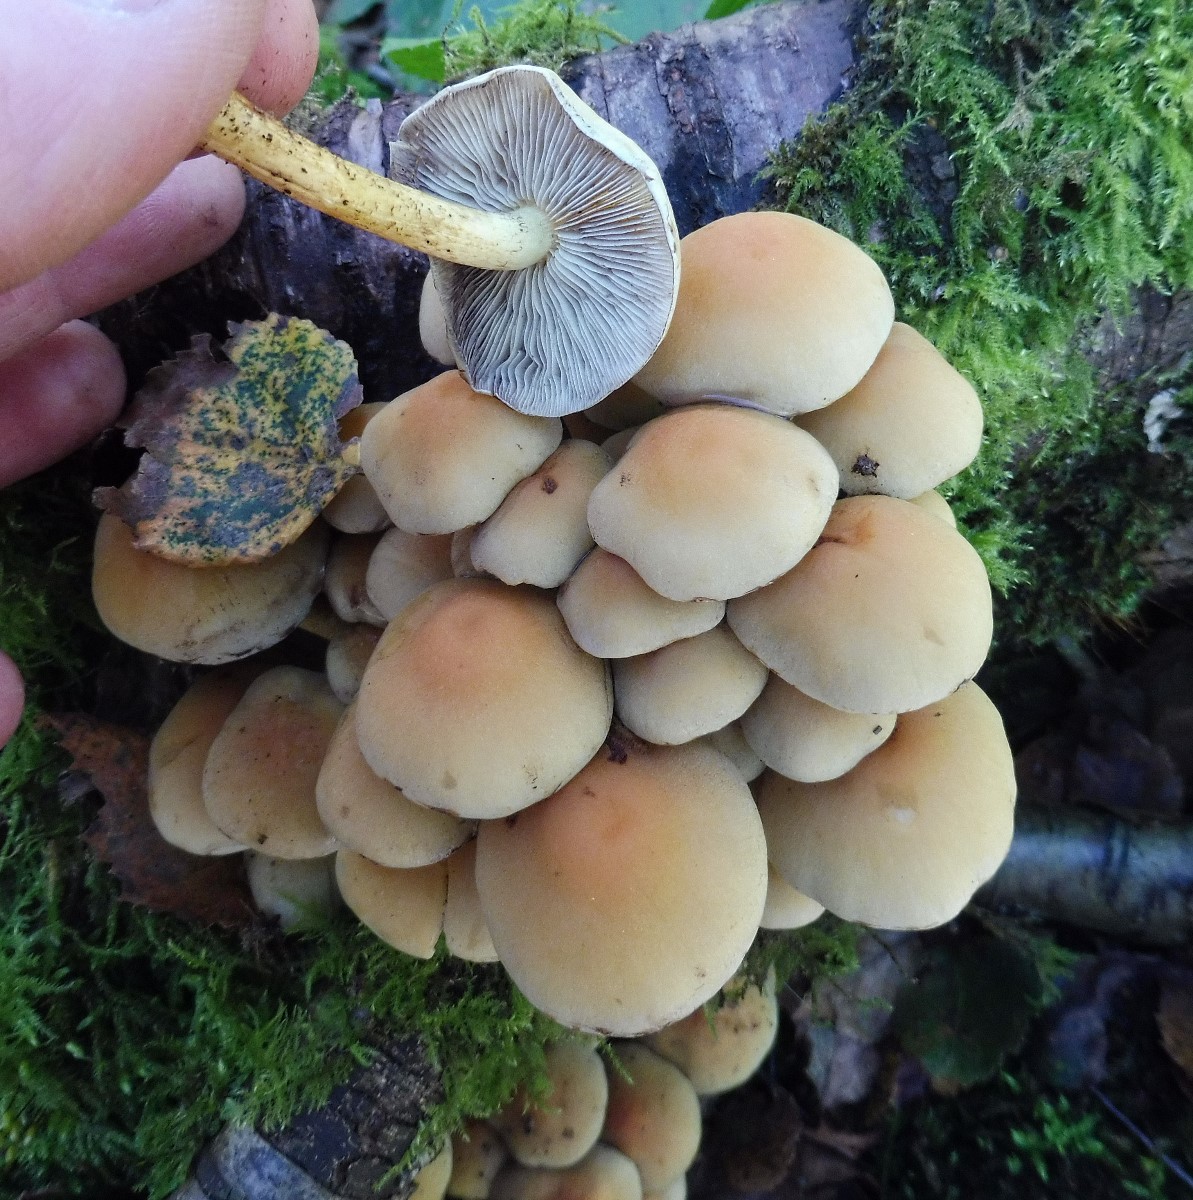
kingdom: Fungi
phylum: Basidiomycota
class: Agaricomycetes
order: Agaricales
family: Strophariaceae
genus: Hypholoma
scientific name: Hypholoma fasciculare
